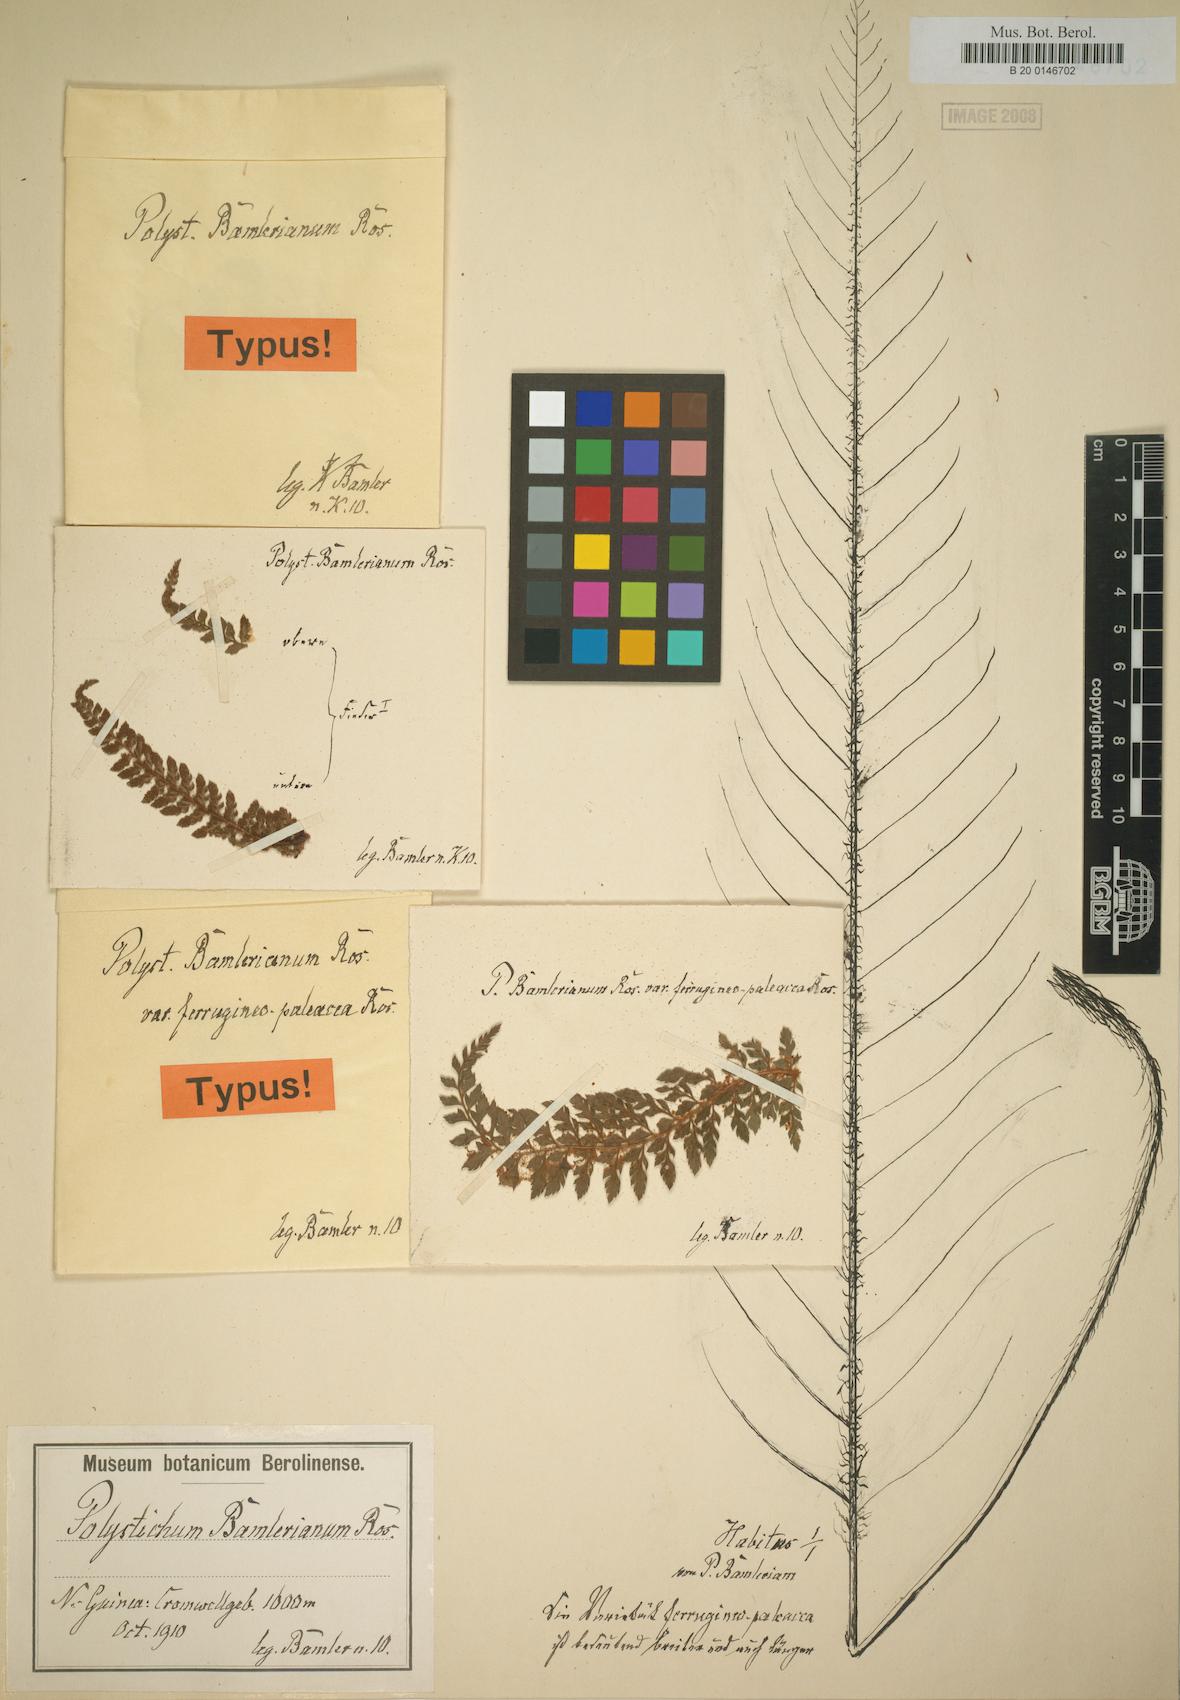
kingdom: Plantae
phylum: Tracheophyta
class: Polypodiopsida
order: Polypodiales
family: Dryopteridaceae
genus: Polystichum
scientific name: Polystichum bamlerianum
